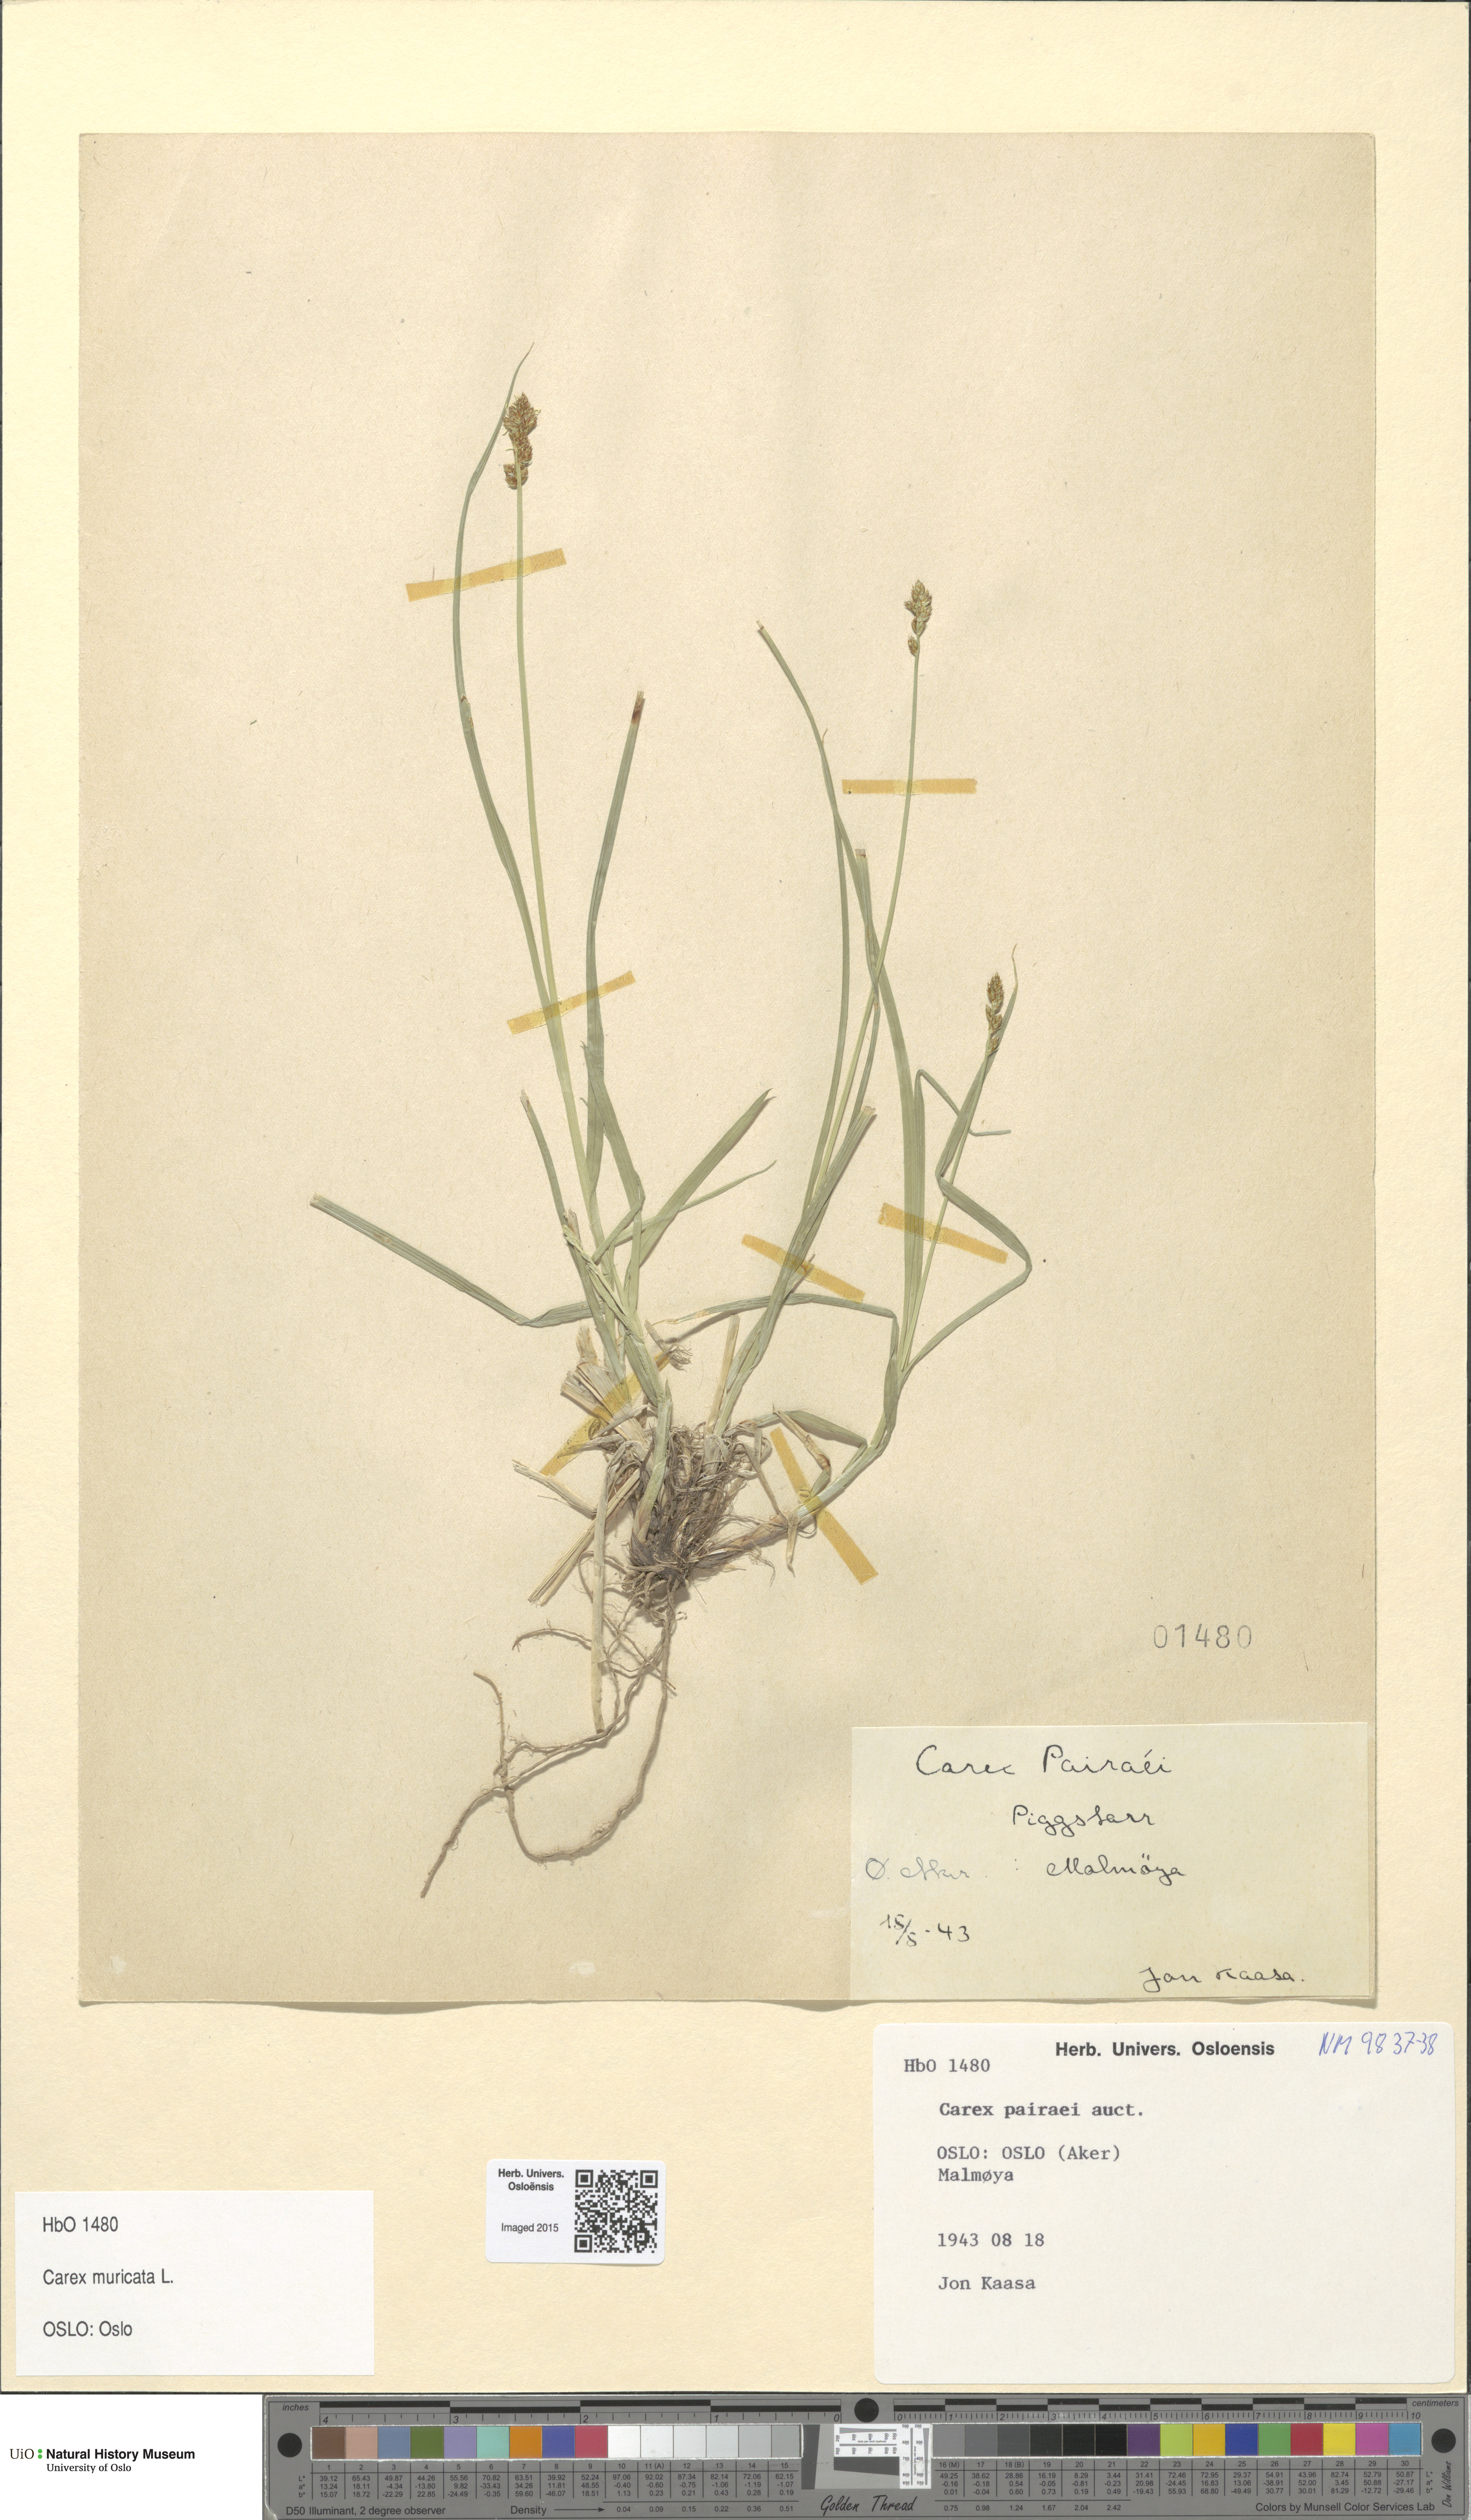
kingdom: Plantae
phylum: Tracheophyta
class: Liliopsida
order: Poales
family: Cyperaceae
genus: Carex
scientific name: Carex pairae
